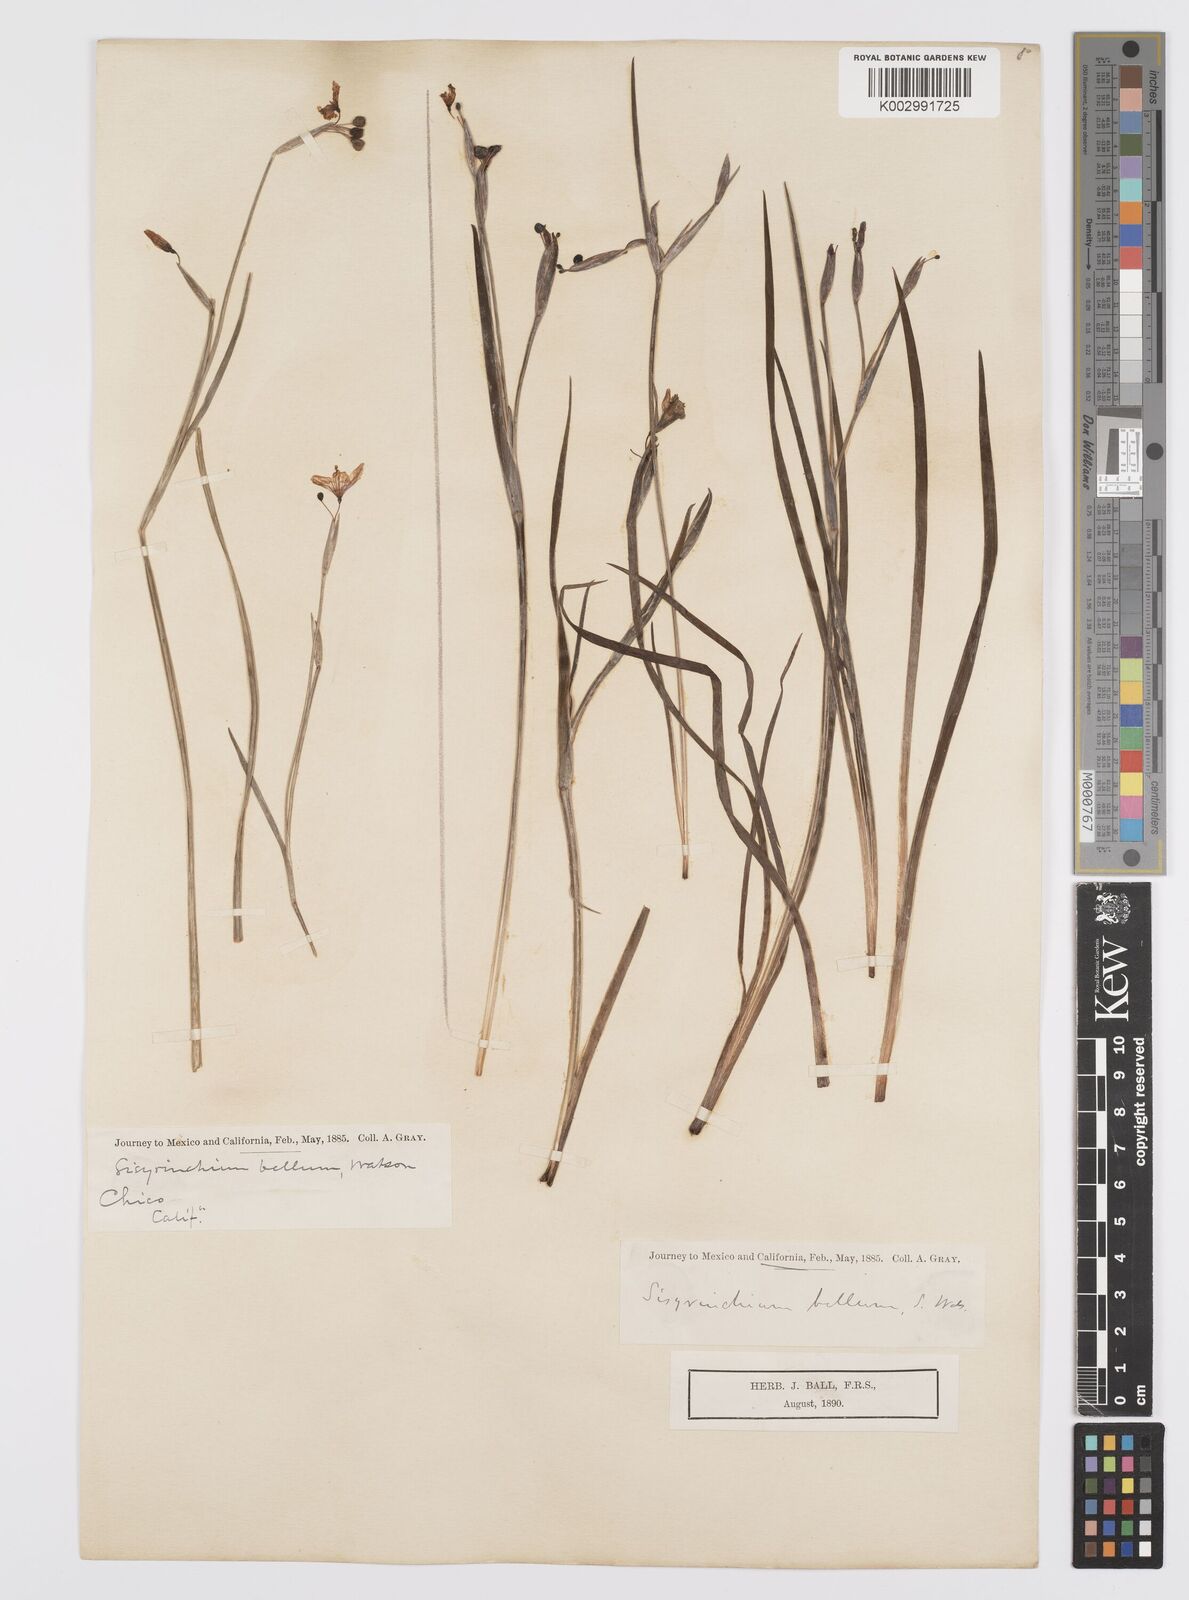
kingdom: Plantae
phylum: Tracheophyta
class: Liliopsida
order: Asparagales
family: Iridaceae
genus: Sisyrinchium
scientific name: Sisyrinchium bellum
